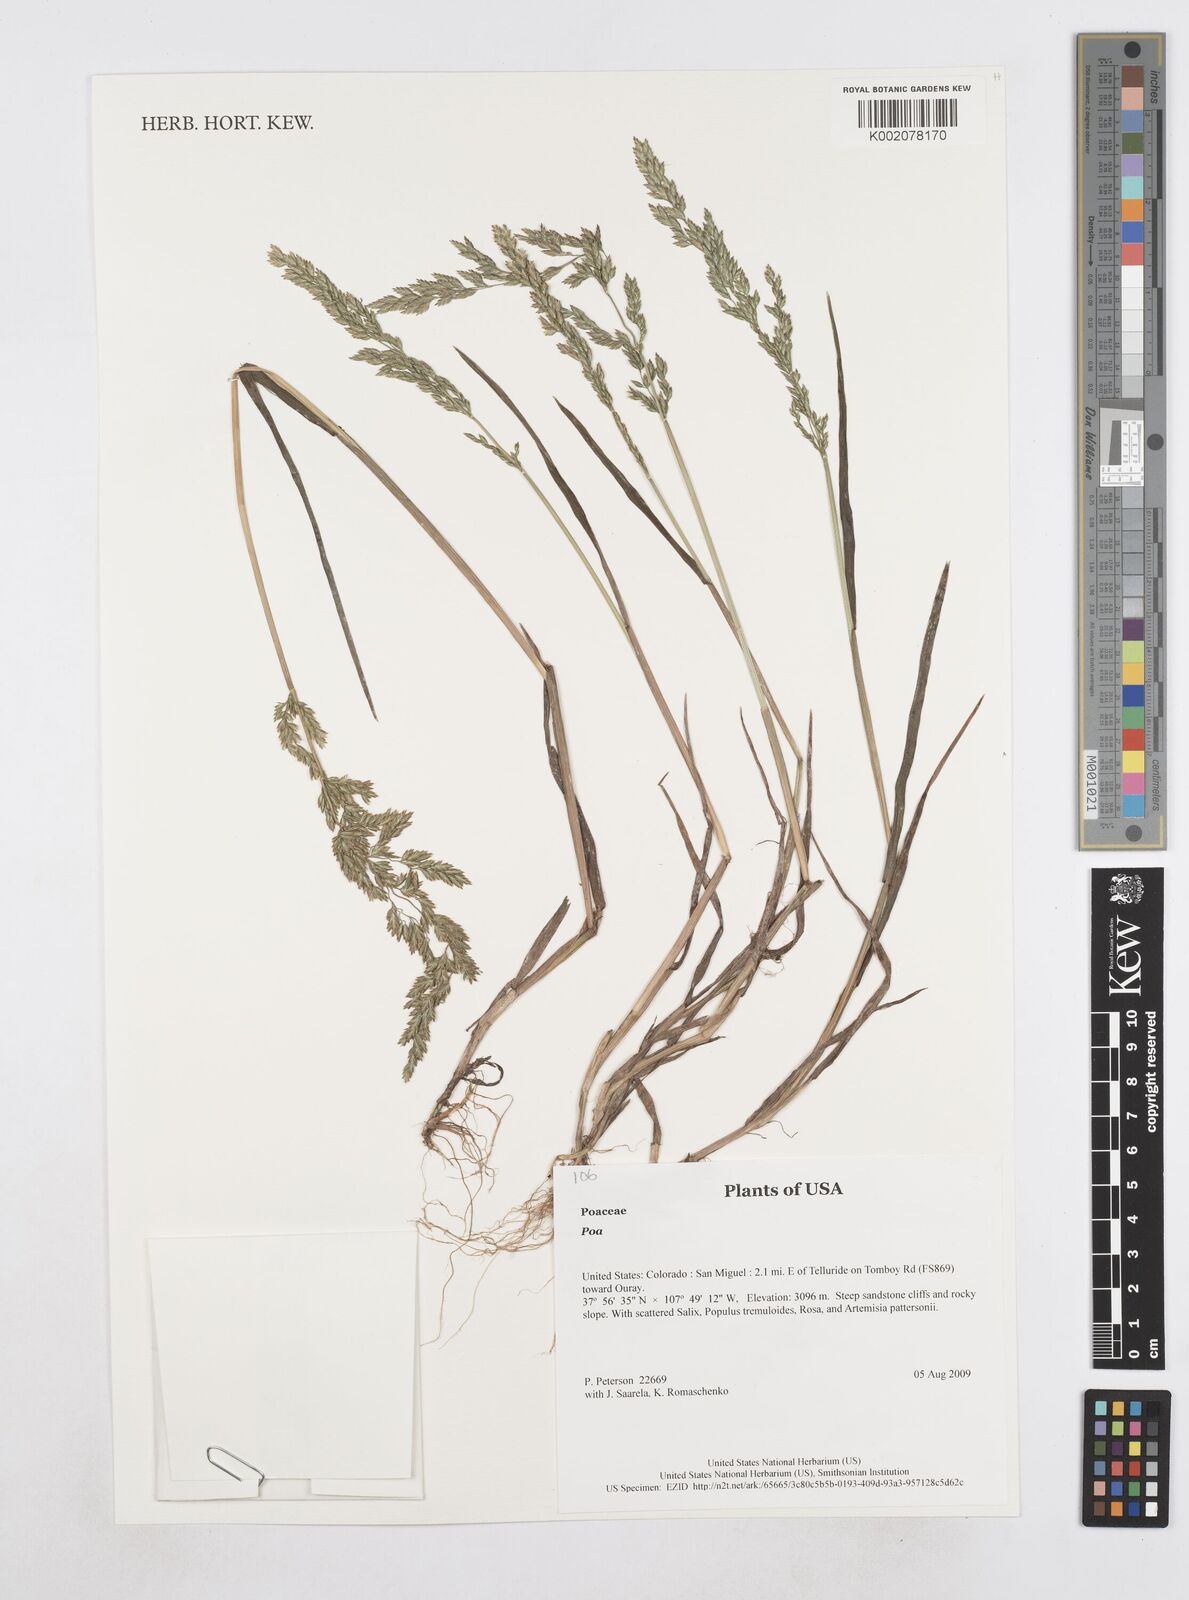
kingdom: Plantae
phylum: Tracheophyta
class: Liliopsida
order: Poales
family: Poaceae
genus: Poa
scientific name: Poa
